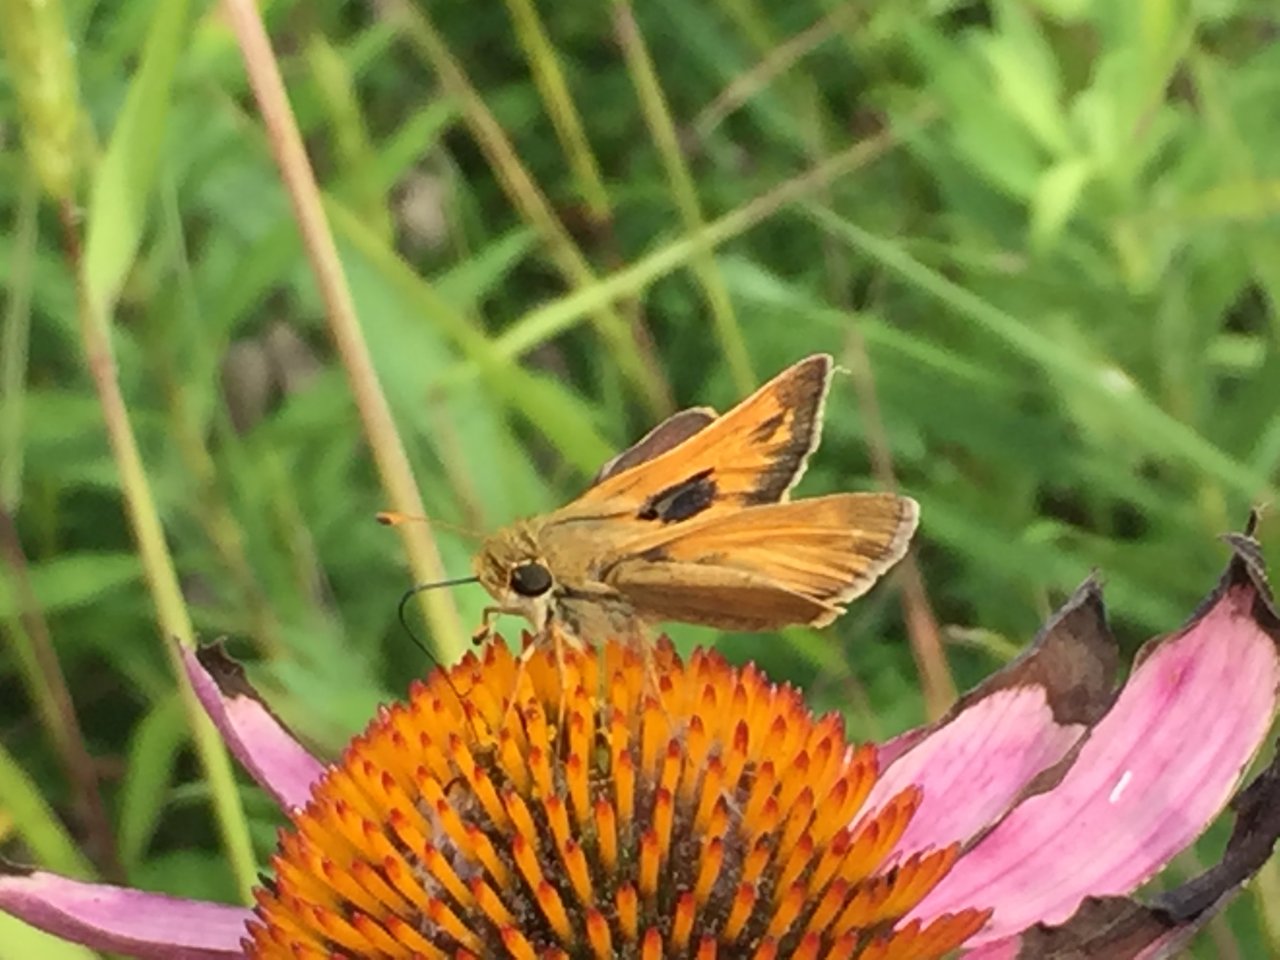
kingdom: Animalia
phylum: Arthropoda
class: Insecta
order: Lepidoptera
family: Hesperiidae
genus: Atalopedes
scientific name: Atalopedes campestris
